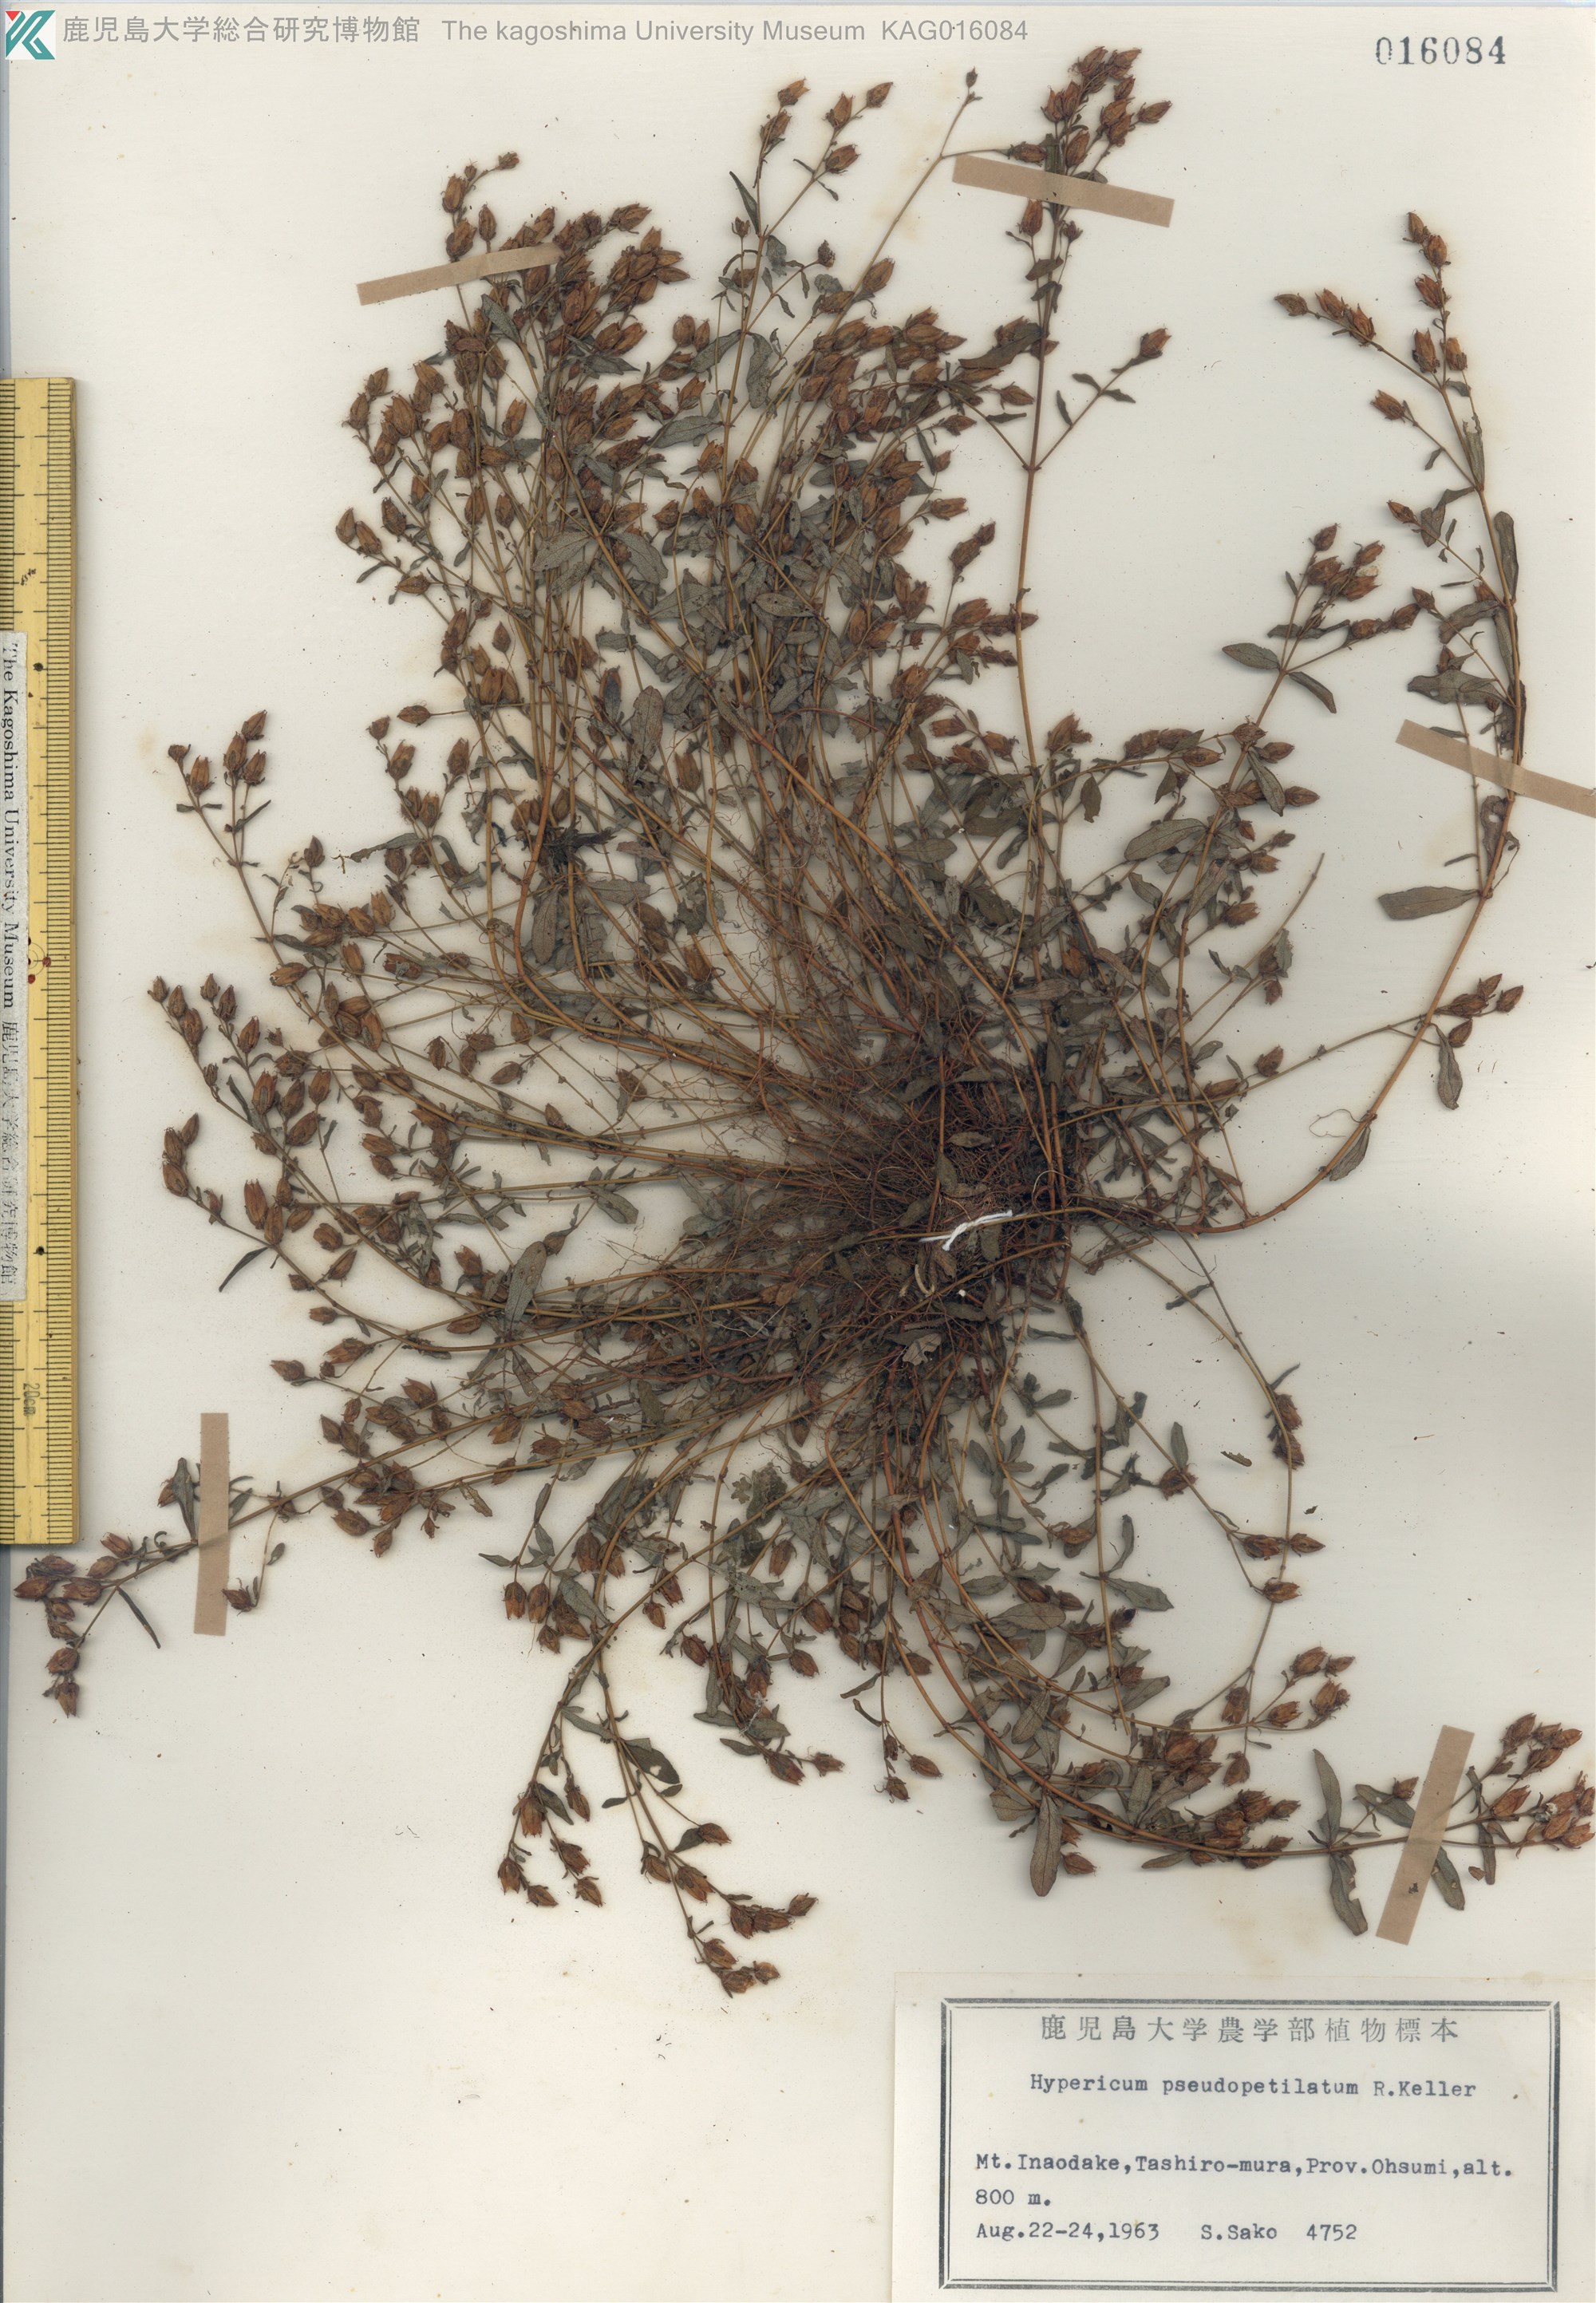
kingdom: Plantae
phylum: Tracheophyta
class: Magnoliopsida
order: Malpighiales
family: Hypericaceae
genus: Hypericum
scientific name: Hypericum pseudopetiolatum
